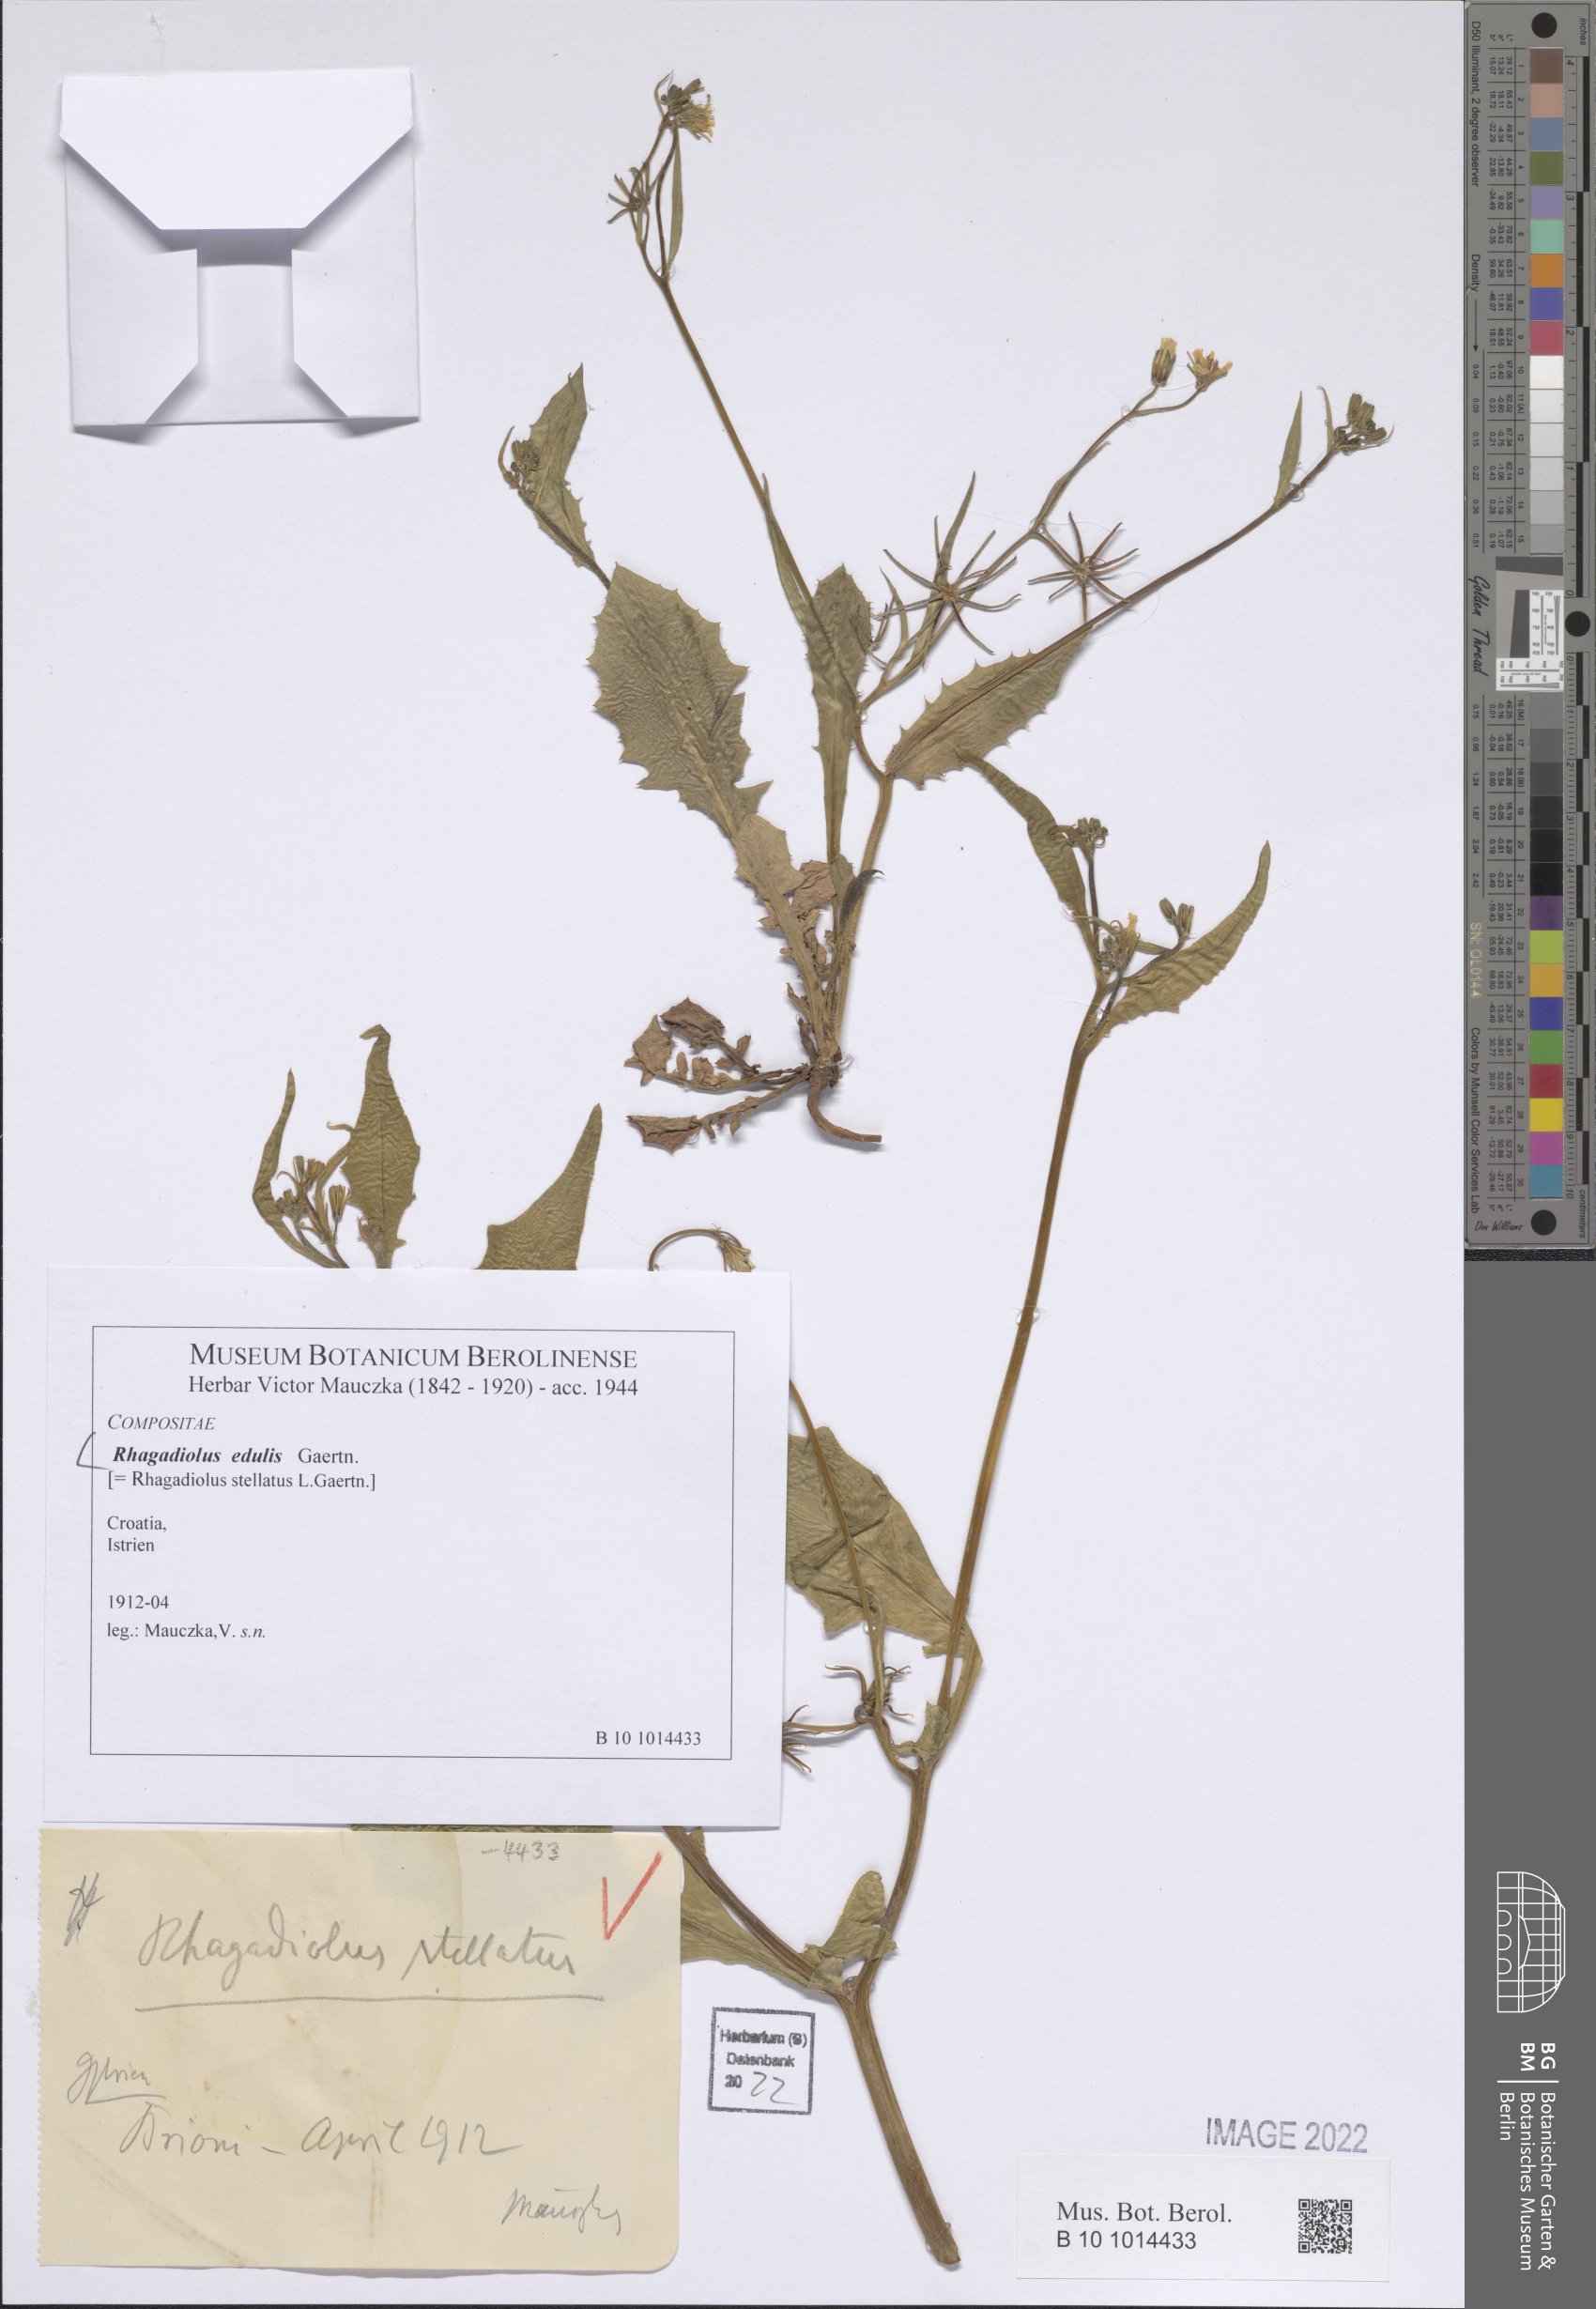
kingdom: Plantae
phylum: Tracheophyta
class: Magnoliopsida
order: Asterales
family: Asteraceae
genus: Rhagadiolus
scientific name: Rhagadiolus edulis
